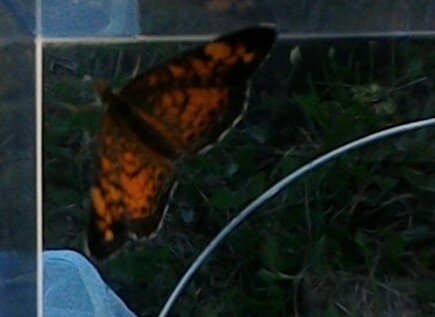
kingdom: Animalia
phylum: Arthropoda
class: Insecta
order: Lepidoptera
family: Nymphalidae
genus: Phyciodes
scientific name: Phyciodes tharos
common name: Pearl Crescent
